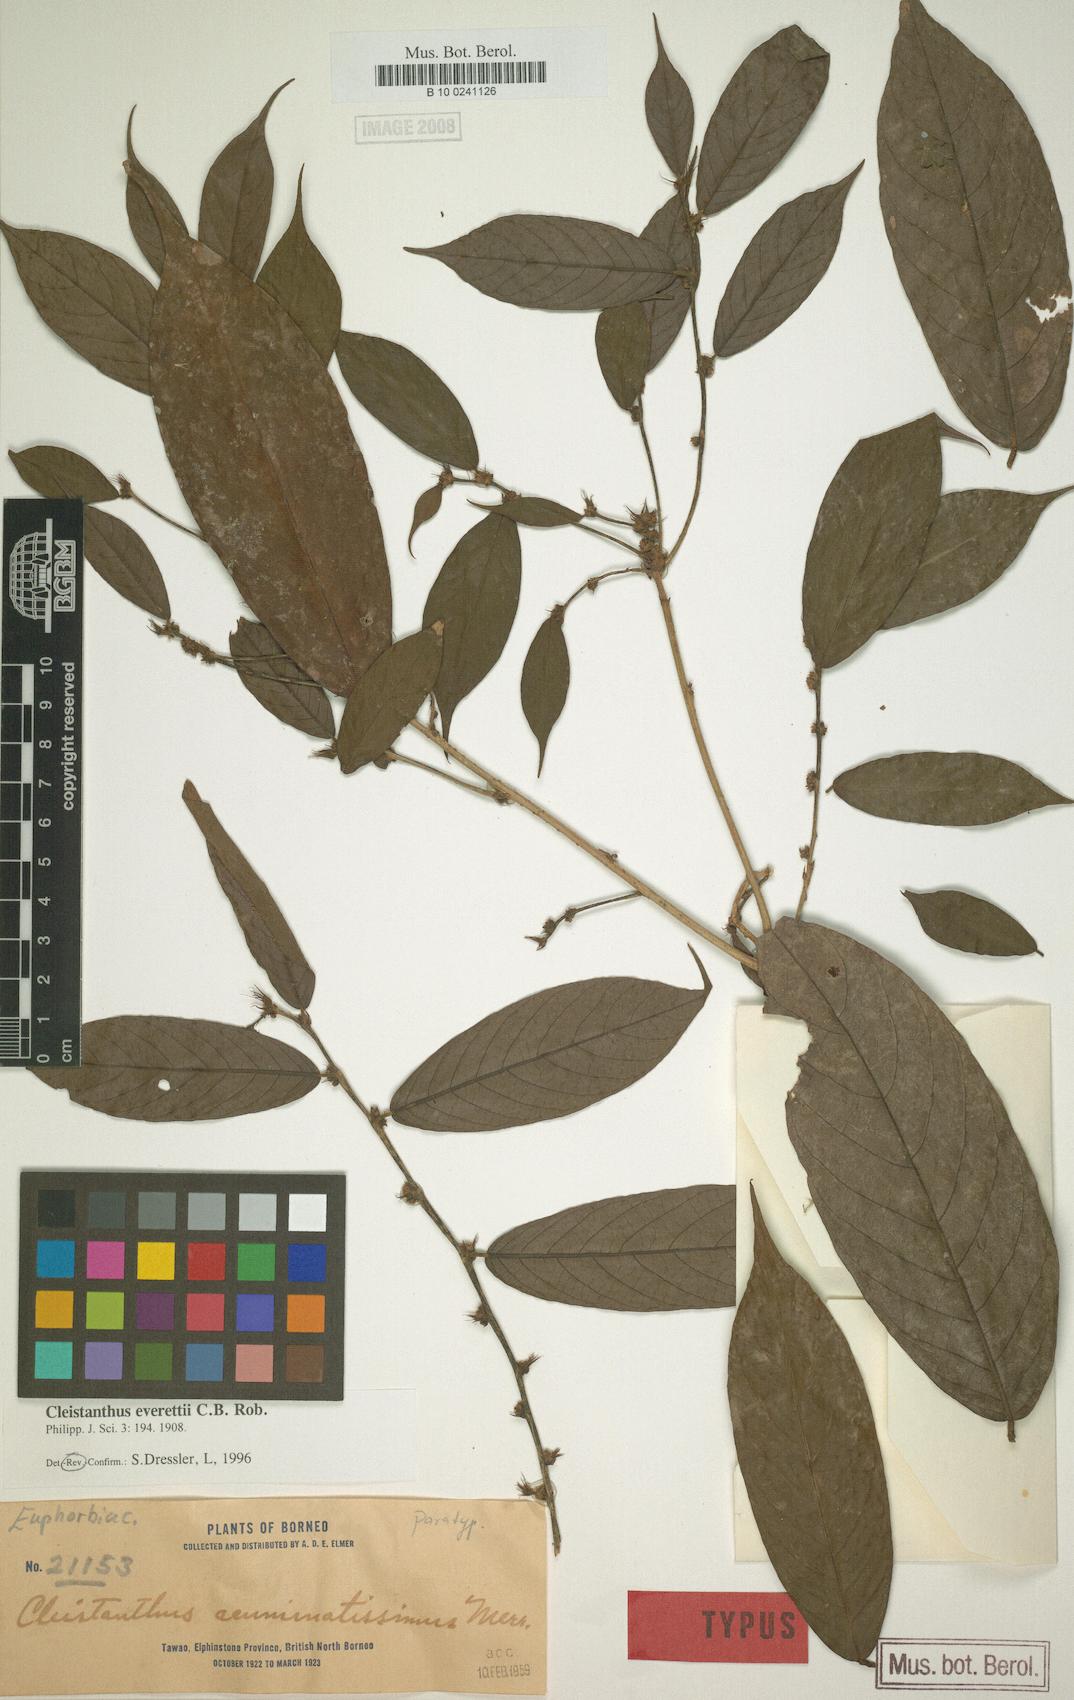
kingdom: Plantae
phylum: Tracheophyta
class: Magnoliopsida
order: Malpighiales
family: Phyllanthaceae
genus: Cleistanthus
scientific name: Cleistanthus everettii
